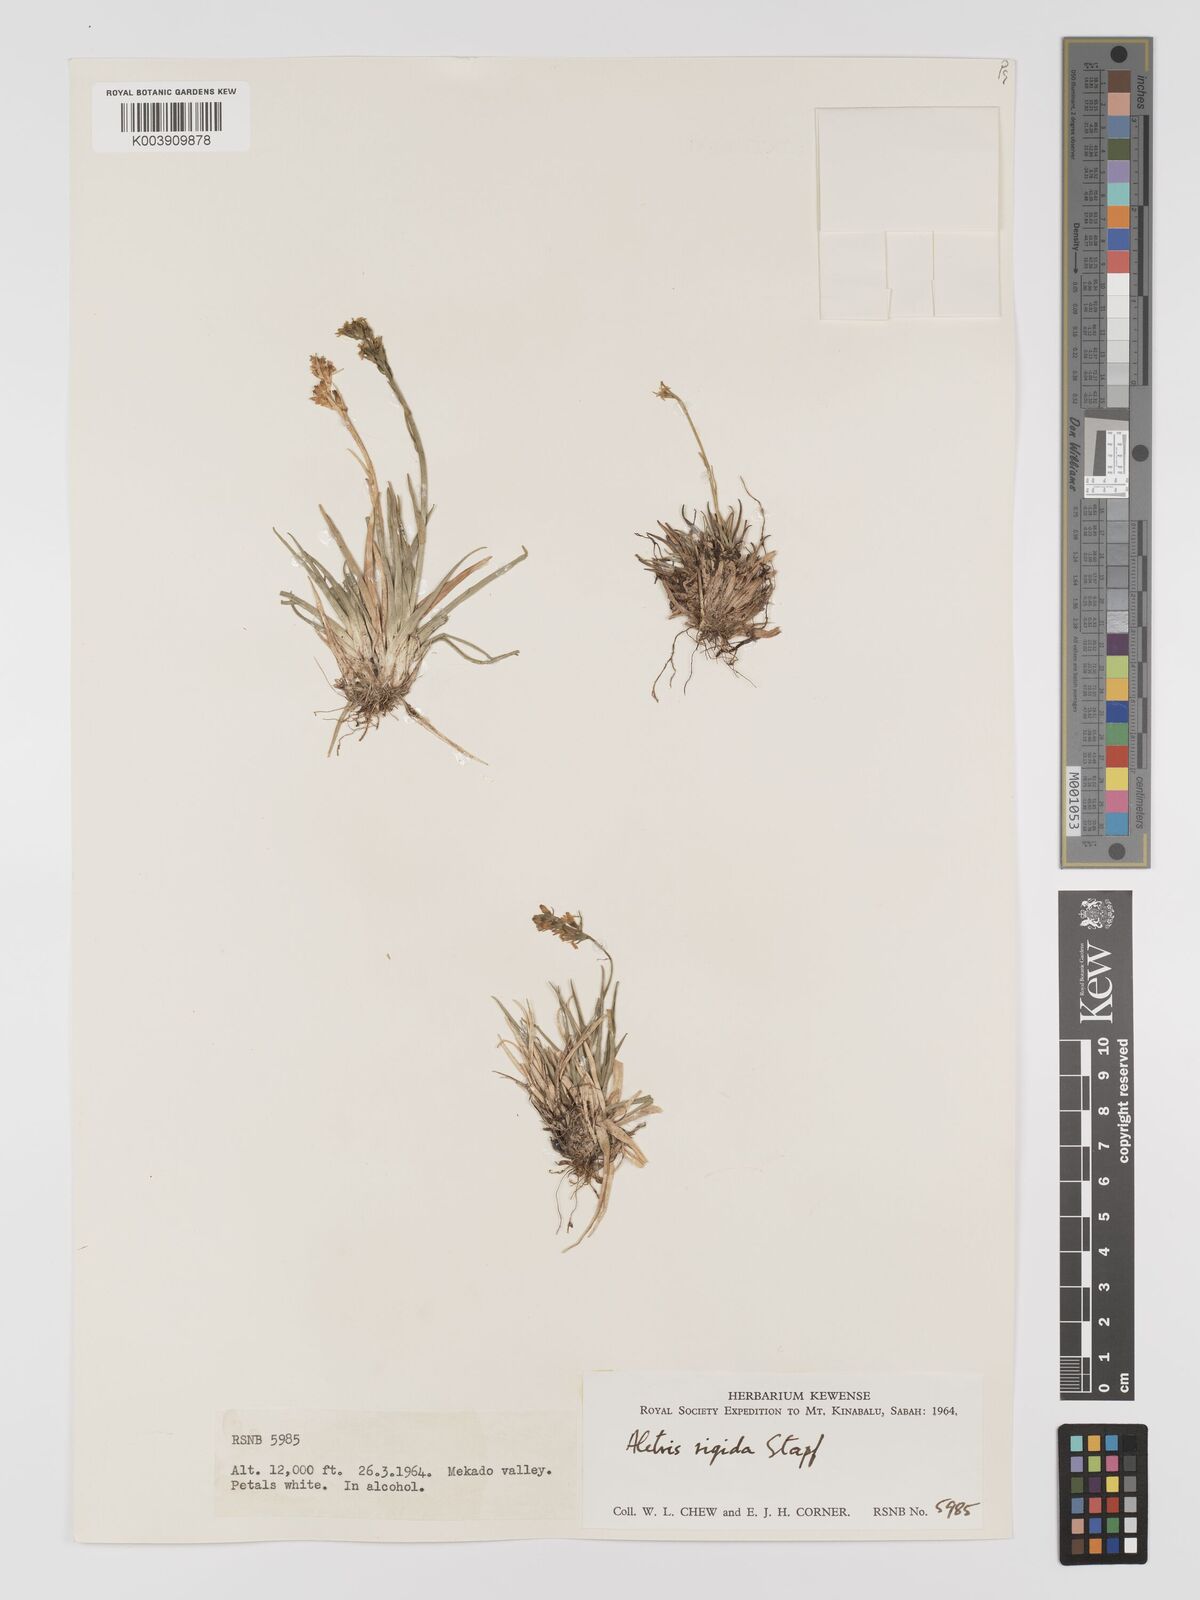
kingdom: Plantae
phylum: Tracheophyta
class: Liliopsida
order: Dioscoreales
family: Nartheciaceae
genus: Aletris
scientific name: Aletris foliolosa
